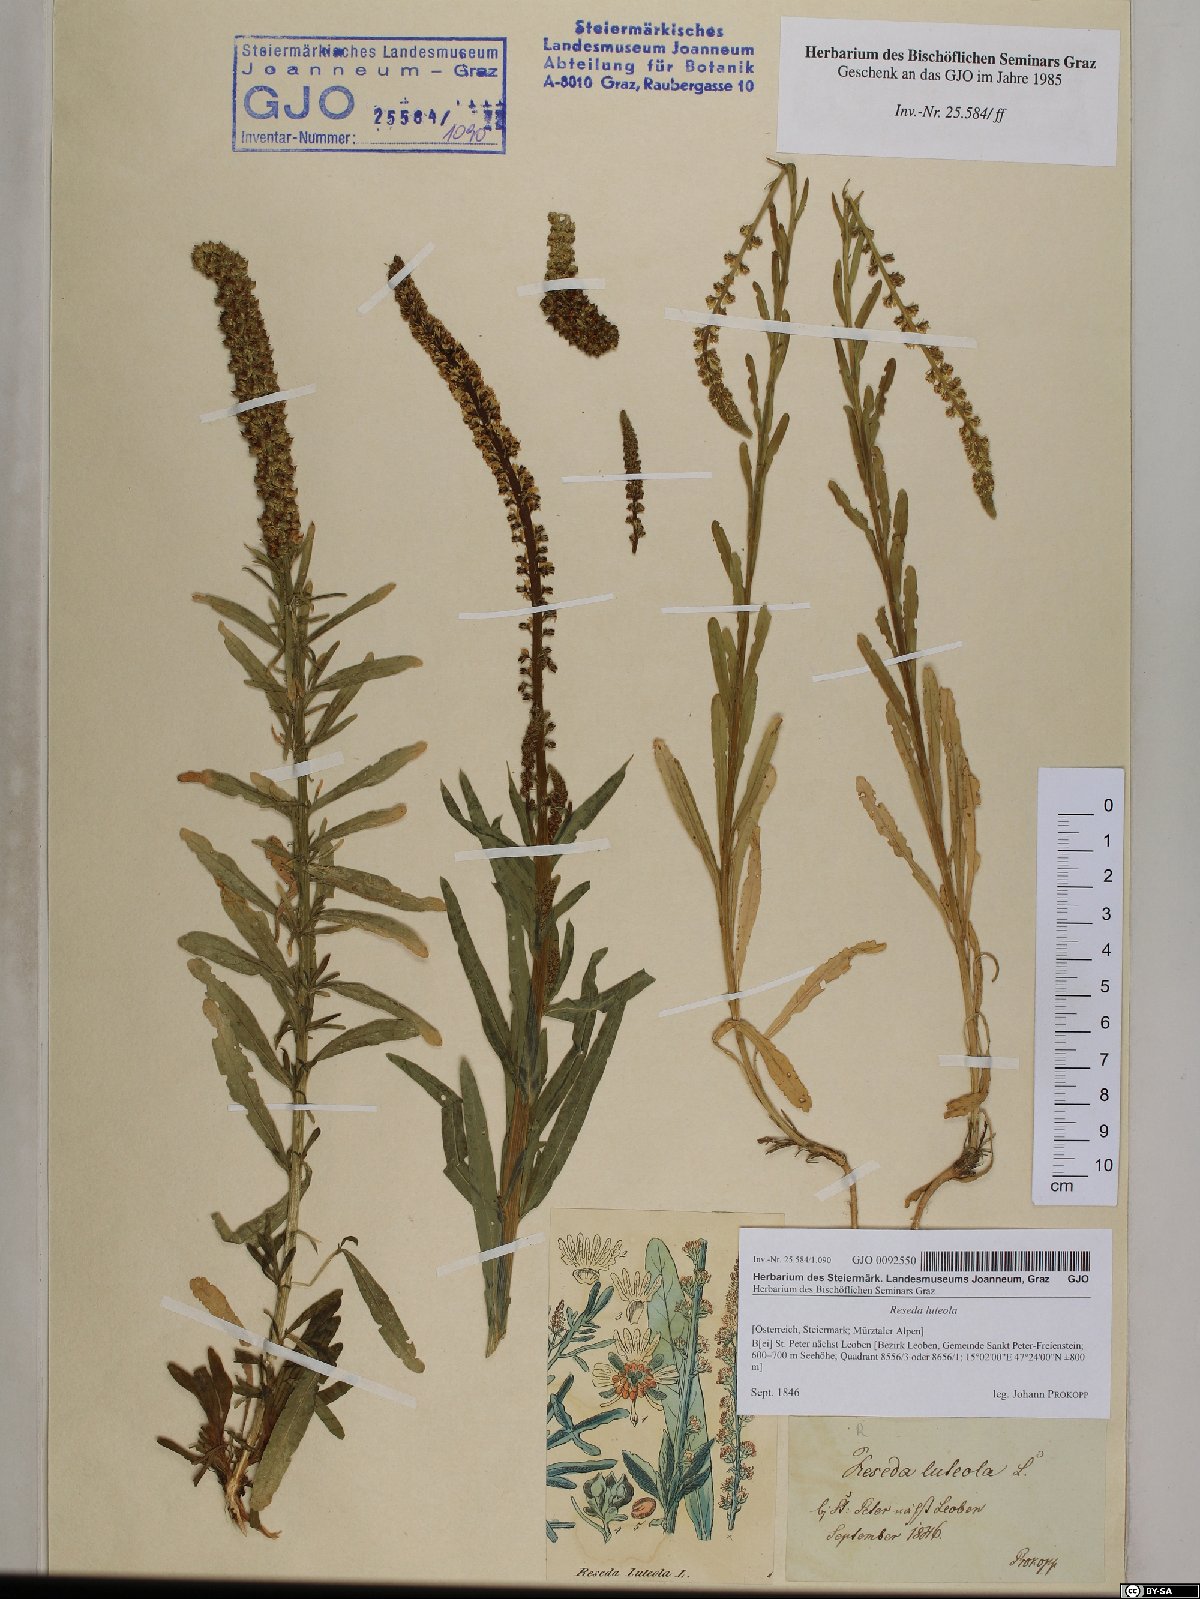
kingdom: Plantae
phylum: Tracheophyta
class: Magnoliopsida
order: Brassicales
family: Resedaceae
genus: Reseda
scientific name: Reseda luteola
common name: Weld
